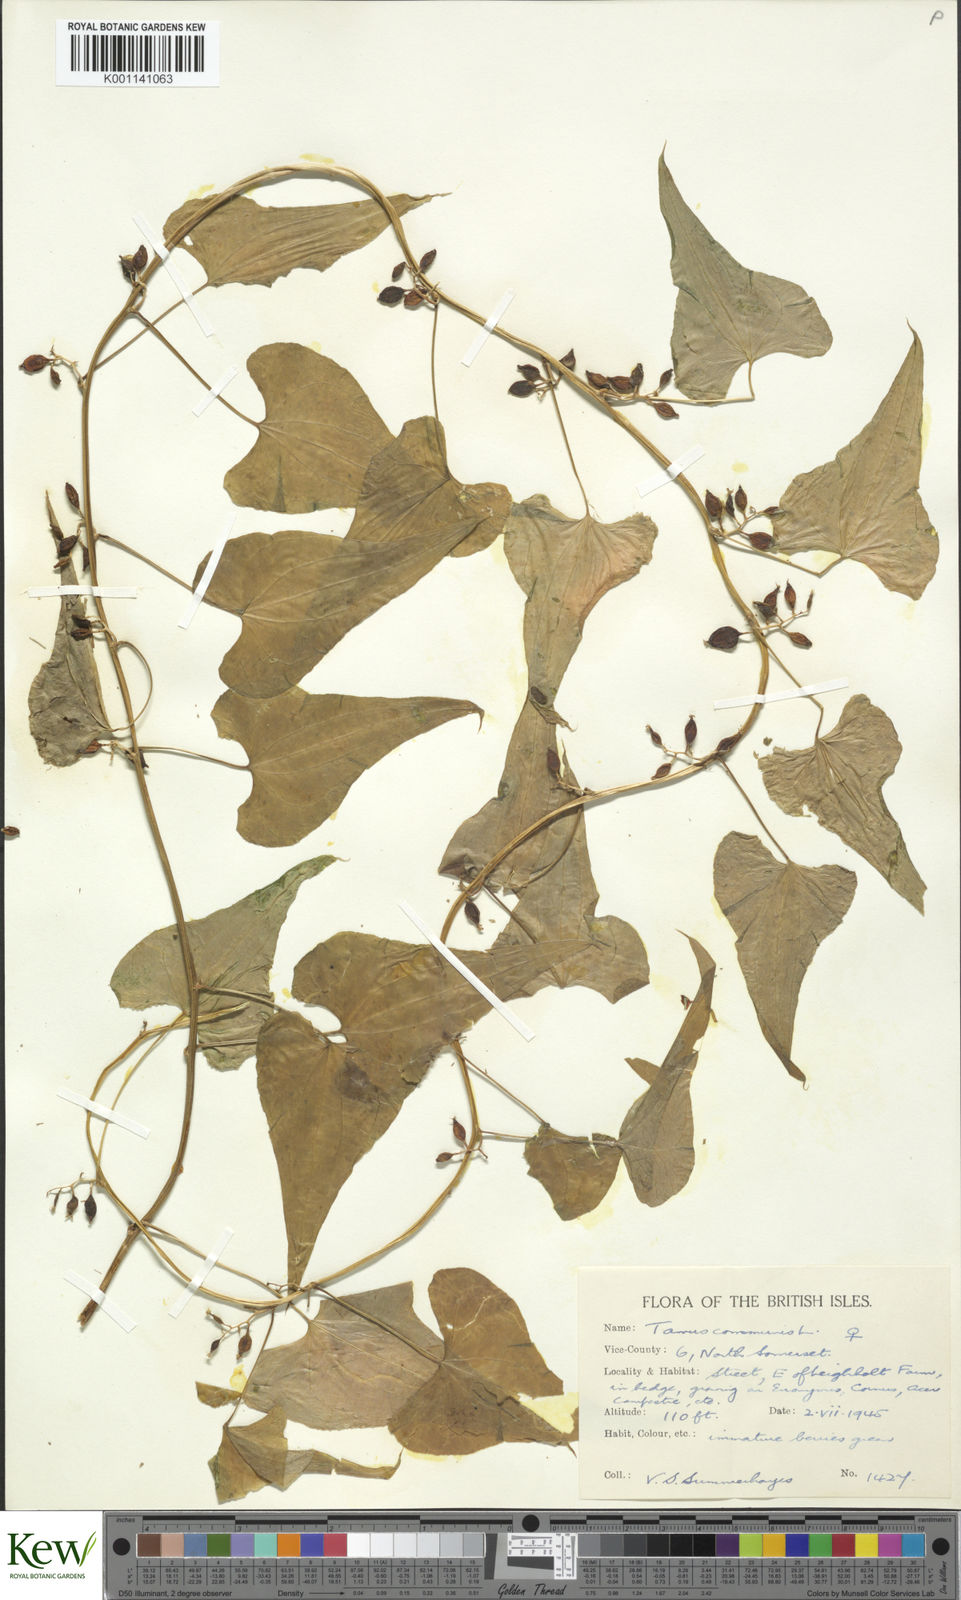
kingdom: Plantae
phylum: Tracheophyta
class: Liliopsida
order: Dioscoreales
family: Dioscoreaceae
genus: Dioscorea
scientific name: Dioscorea communis
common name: Black-bindweed
